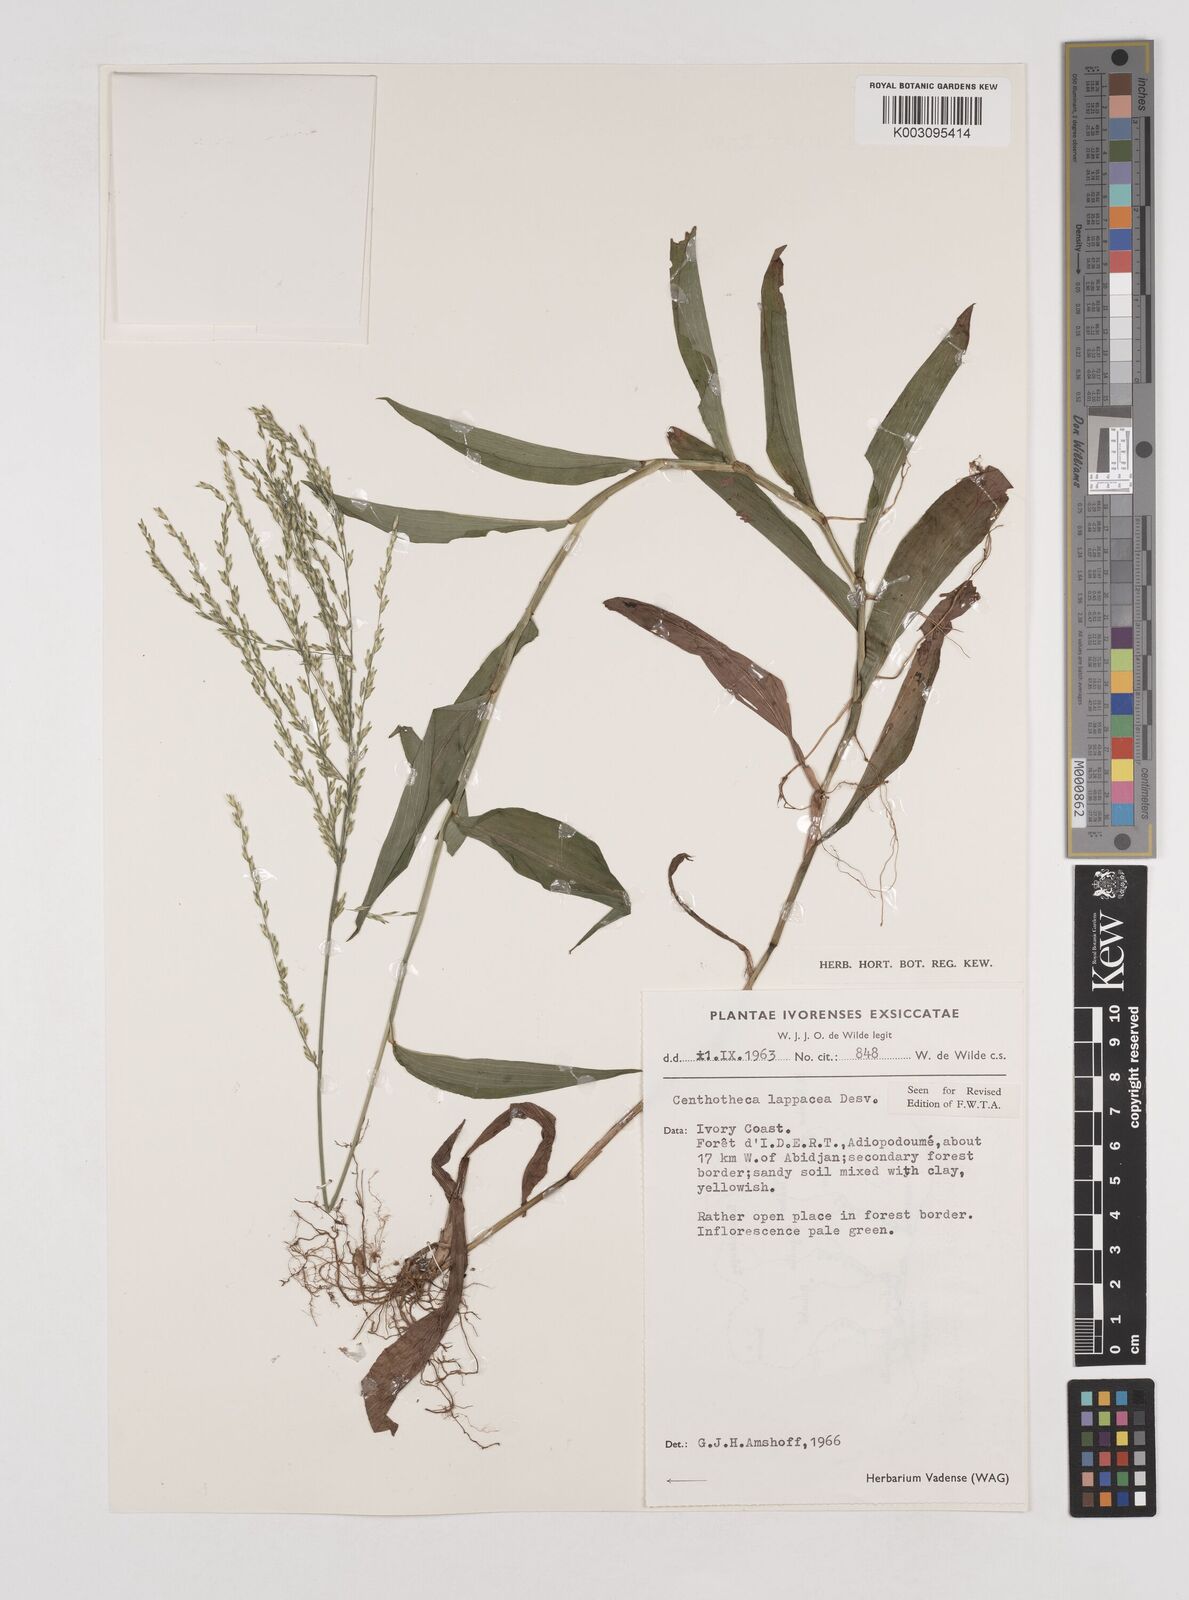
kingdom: Plantae
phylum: Tracheophyta
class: Liliopsida
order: Poales
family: Poaceae
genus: Centotheca
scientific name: Centotheca lappacea
